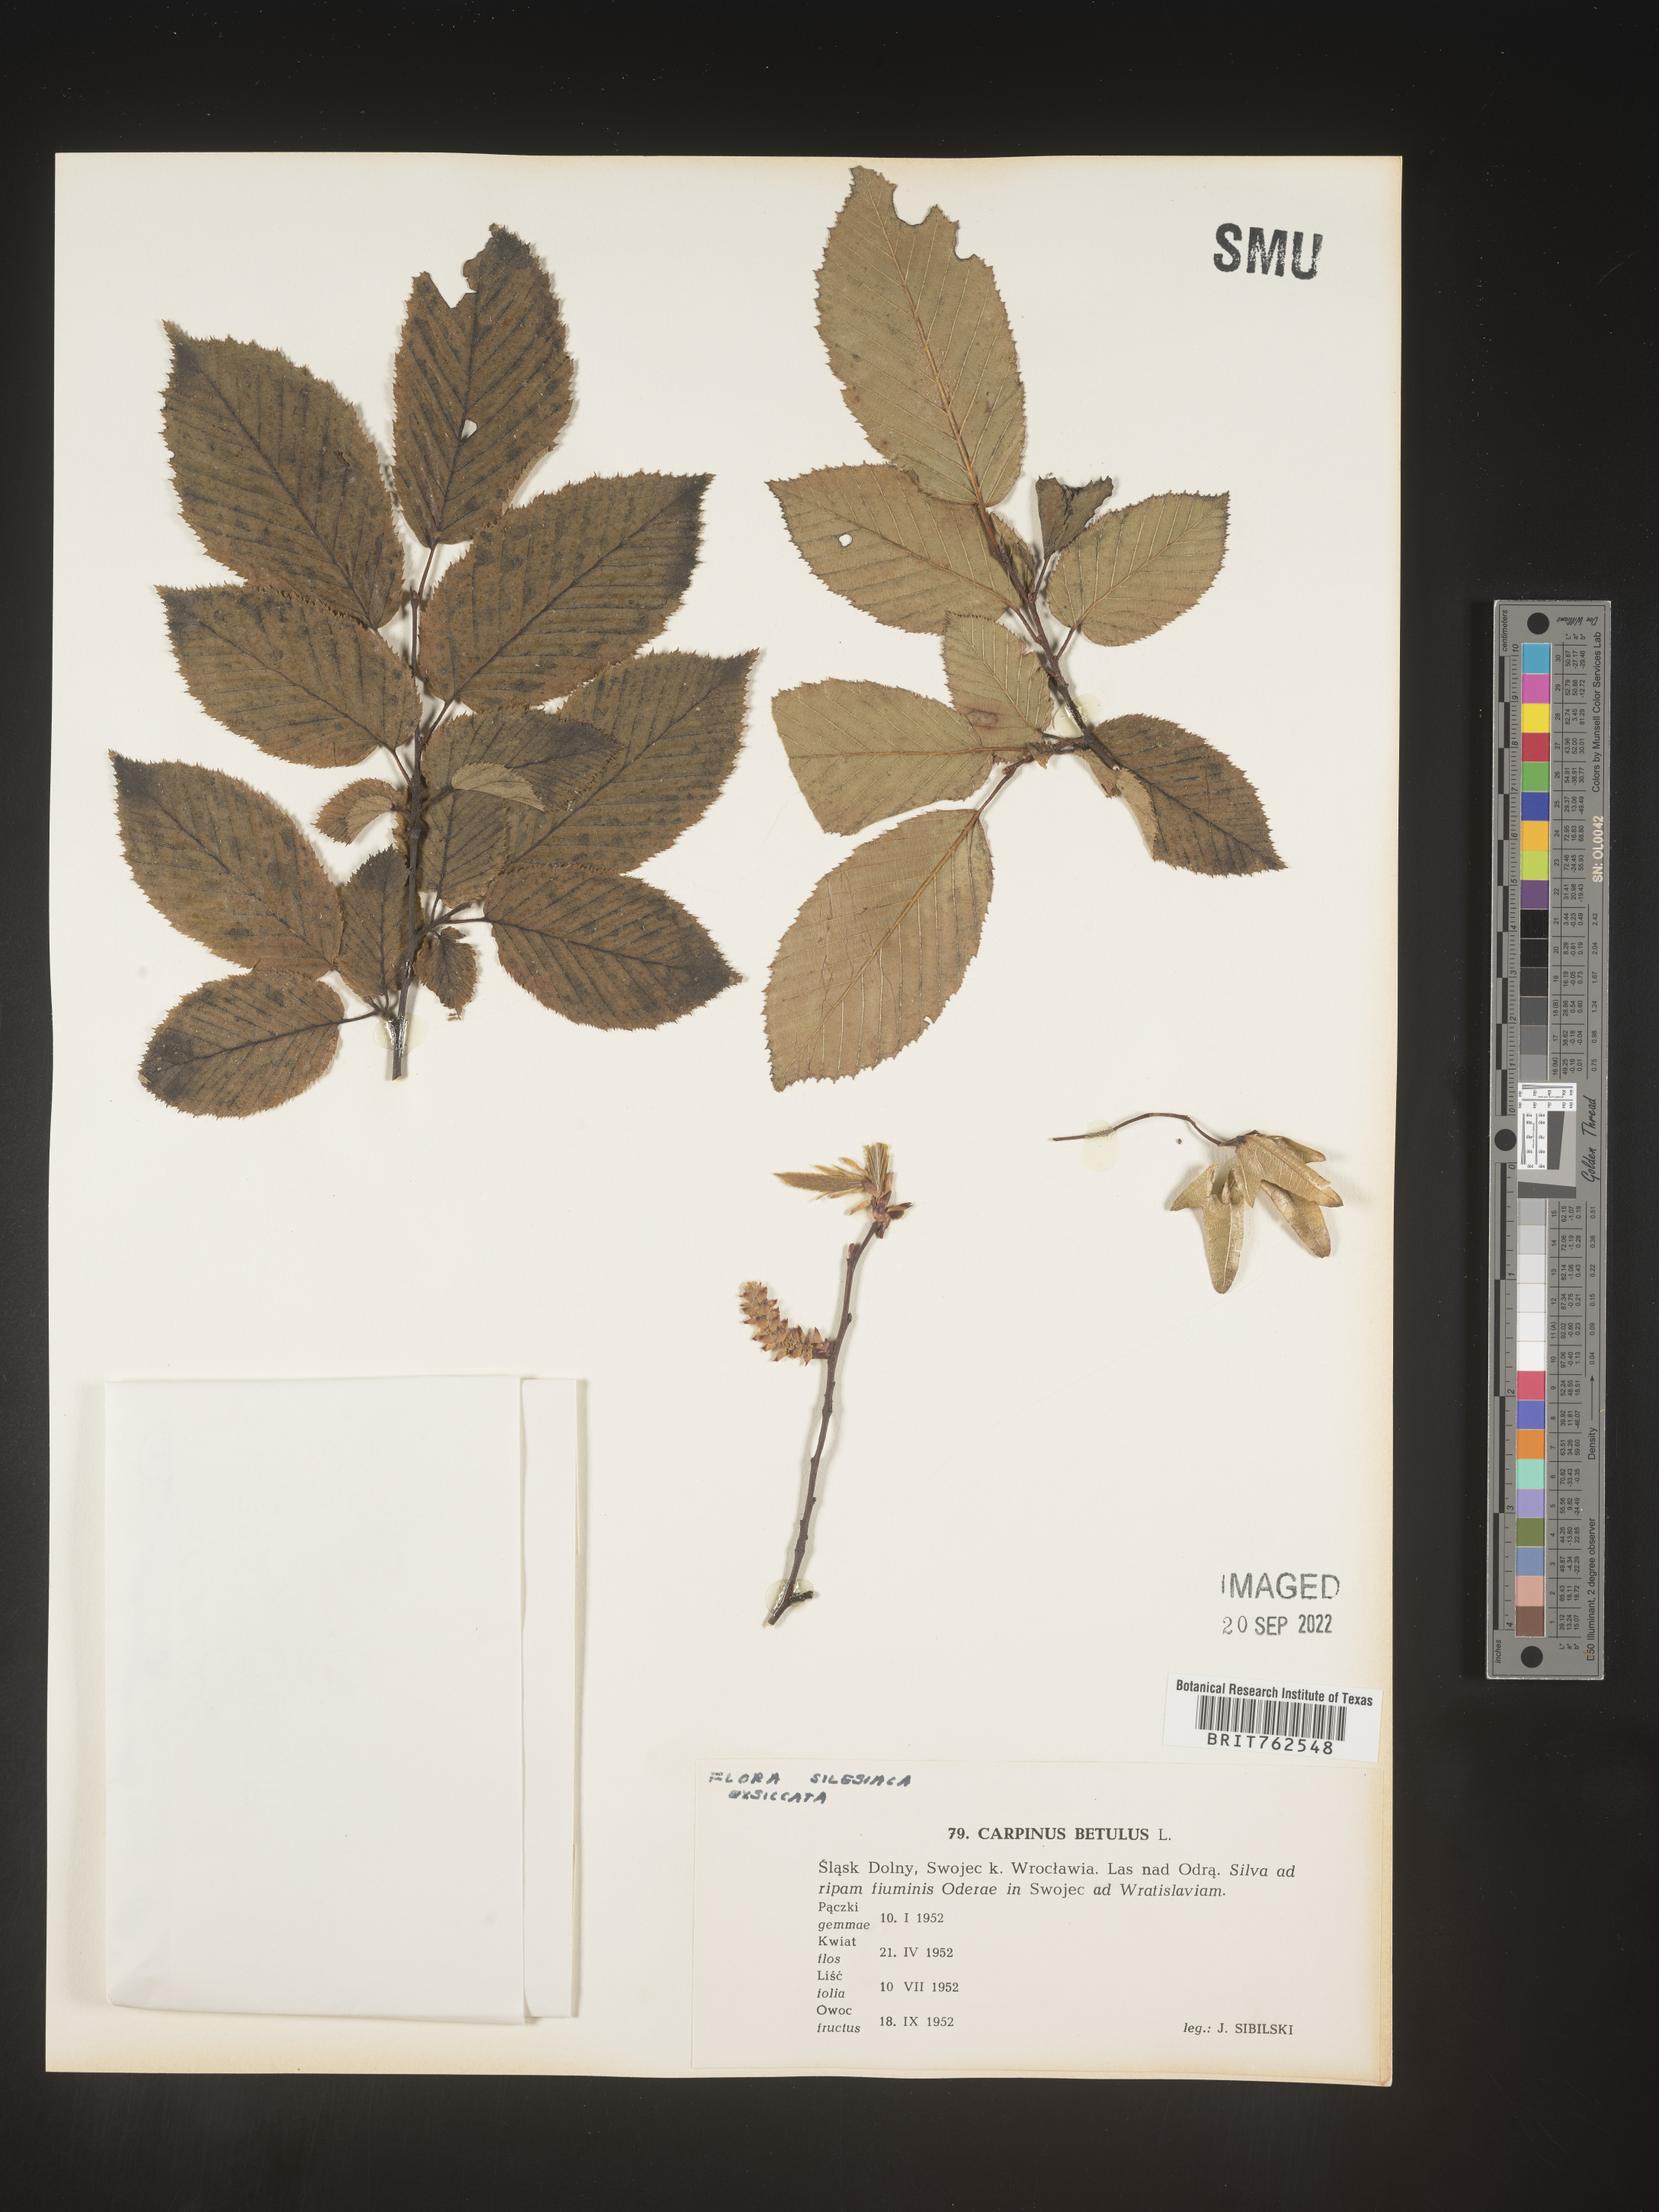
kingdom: Plantae
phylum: Tracheophyta
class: Magnoliopsida
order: Fagales
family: Betulaceae
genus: Carpinus
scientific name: Carpinus
